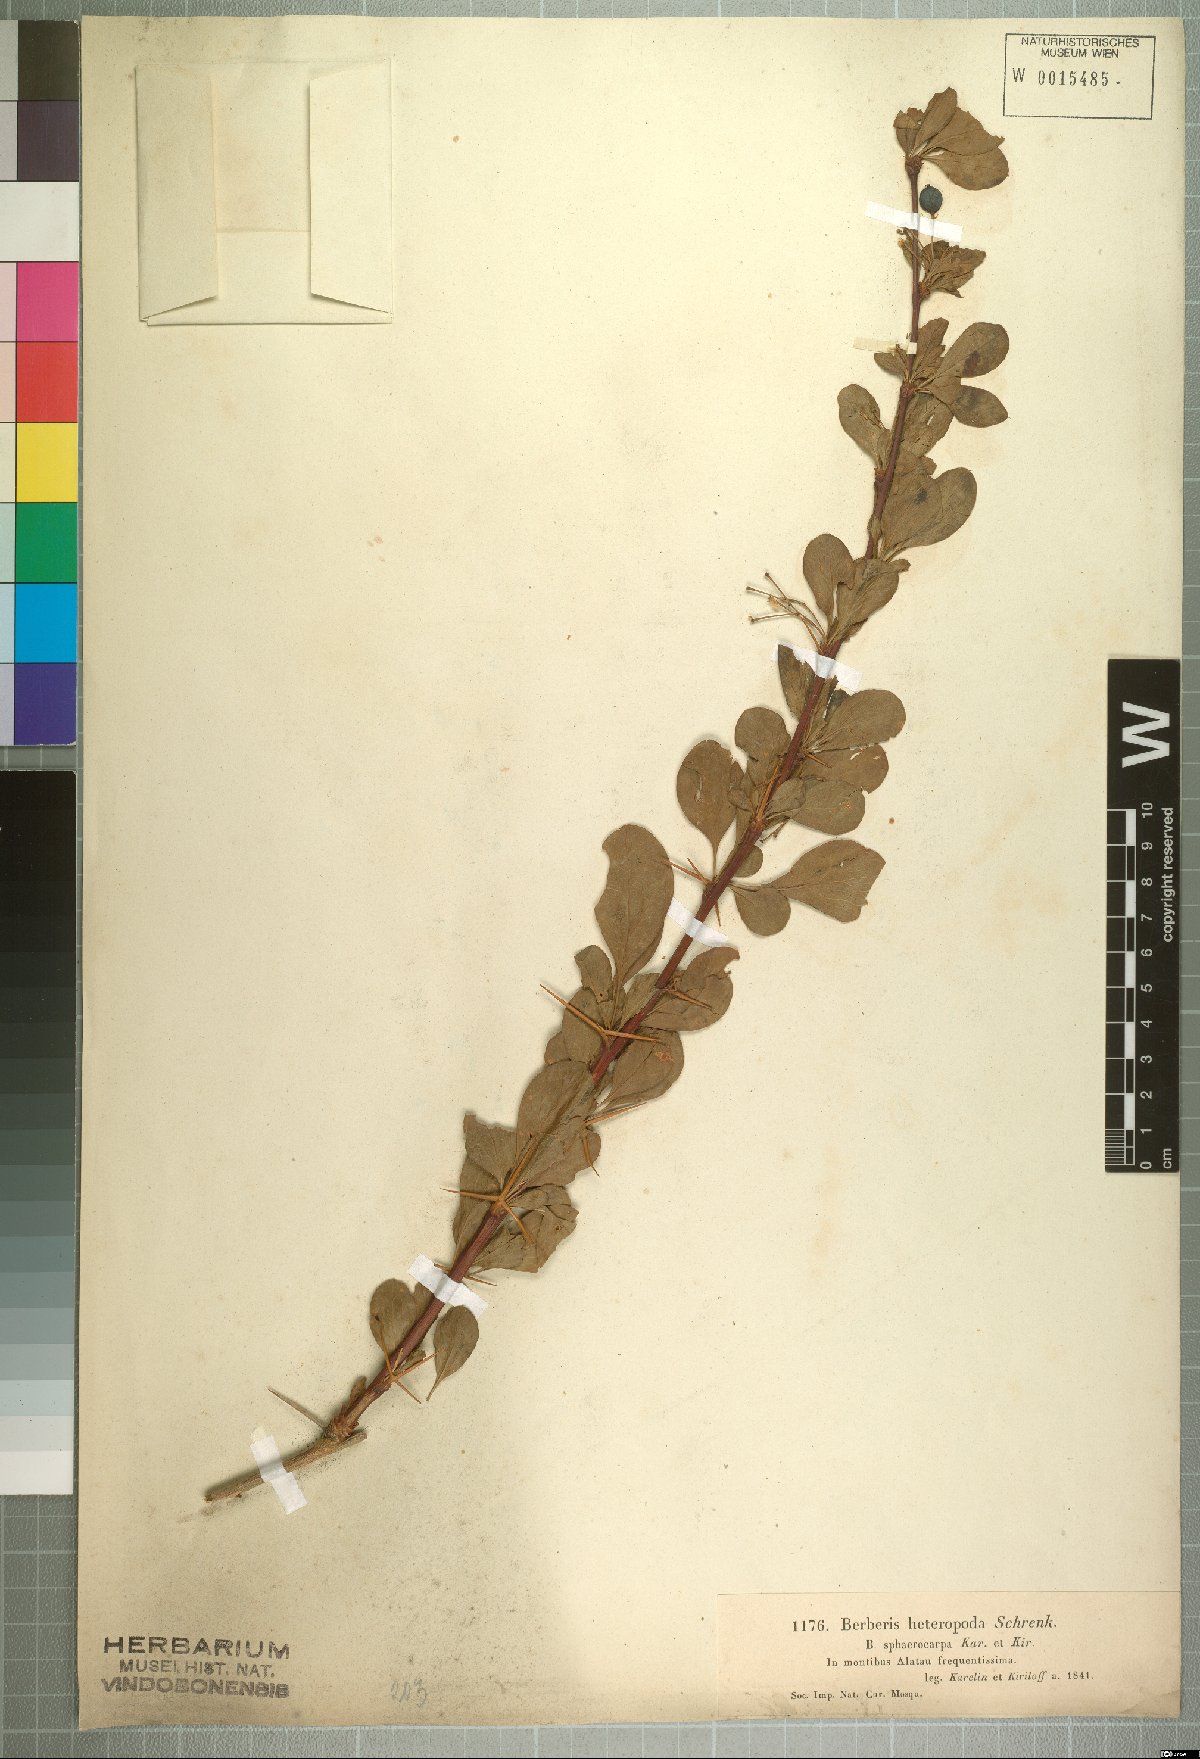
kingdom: Plantae
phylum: Tracheophyta
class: Magnoliopsida
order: Ranunculales
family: Berberidaceae
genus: Berberis
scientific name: Berberis heteropoda
